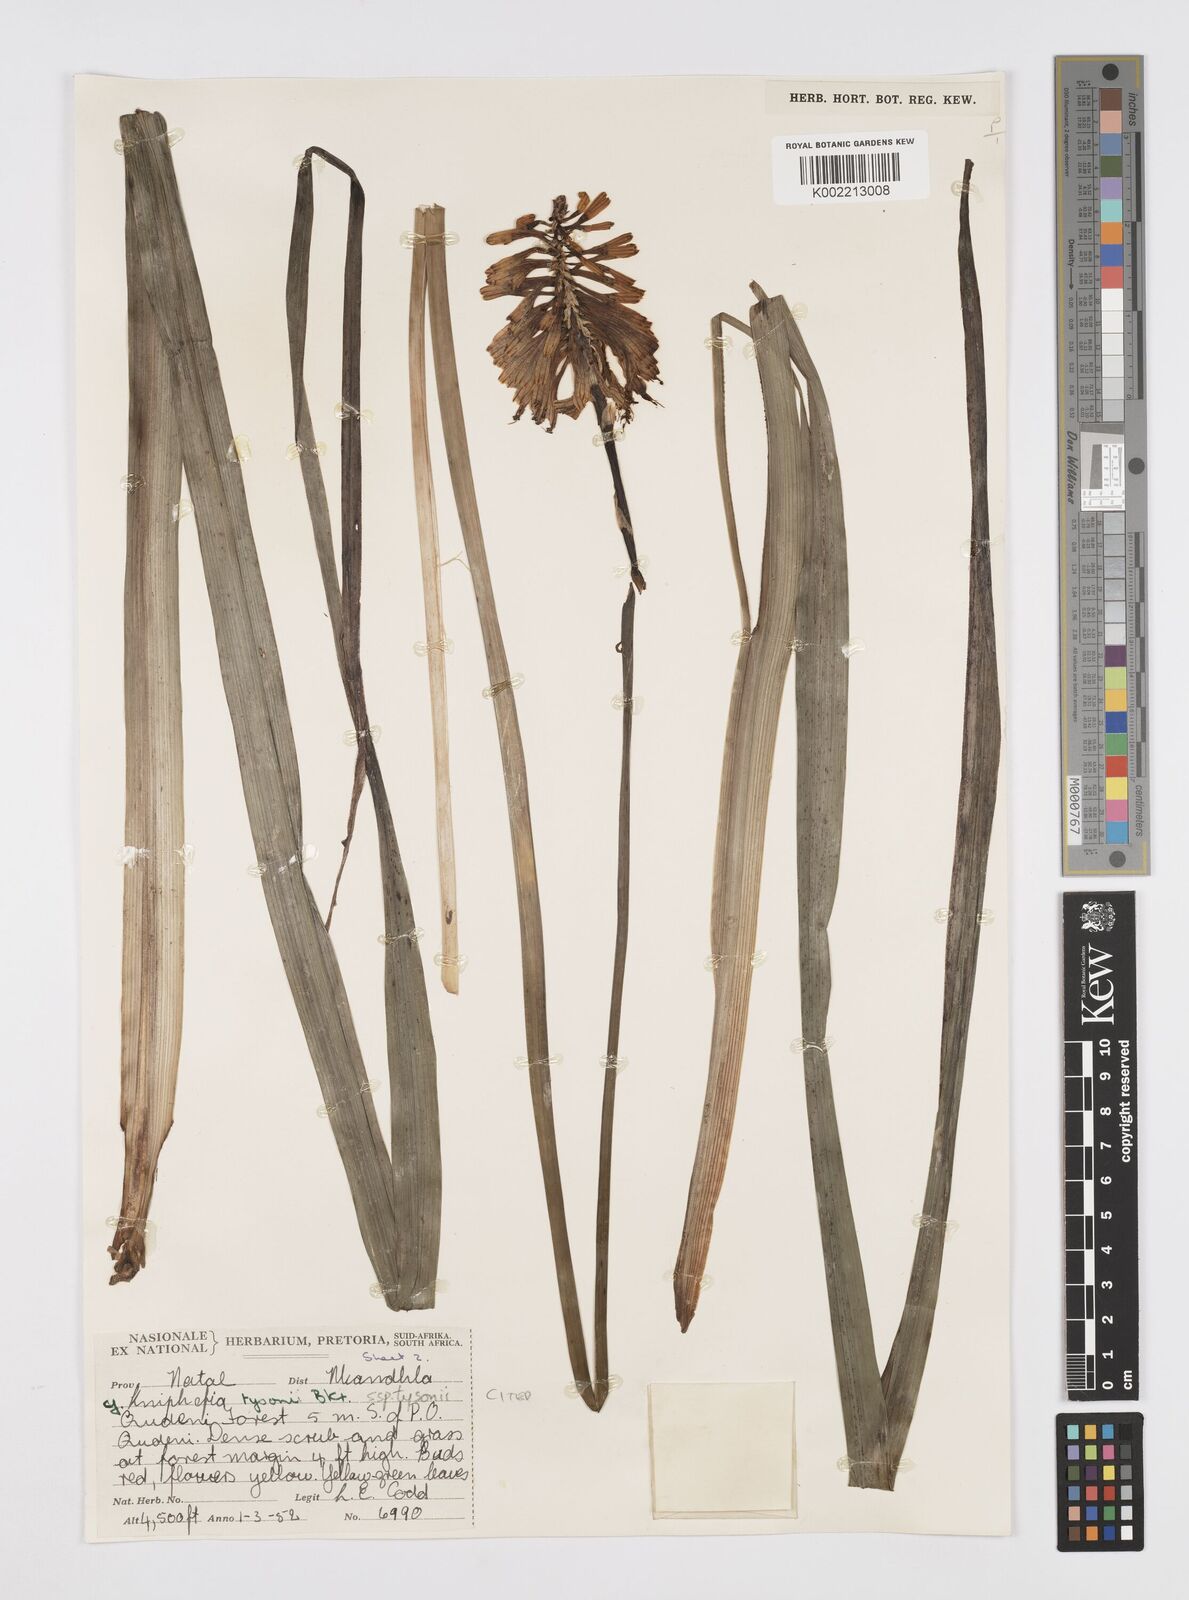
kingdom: Plantae
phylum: Tracheophyta
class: Liliopsida
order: Asparagales
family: Asphodelaceae
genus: Kniphofia
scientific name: Kniphofia tysonii
